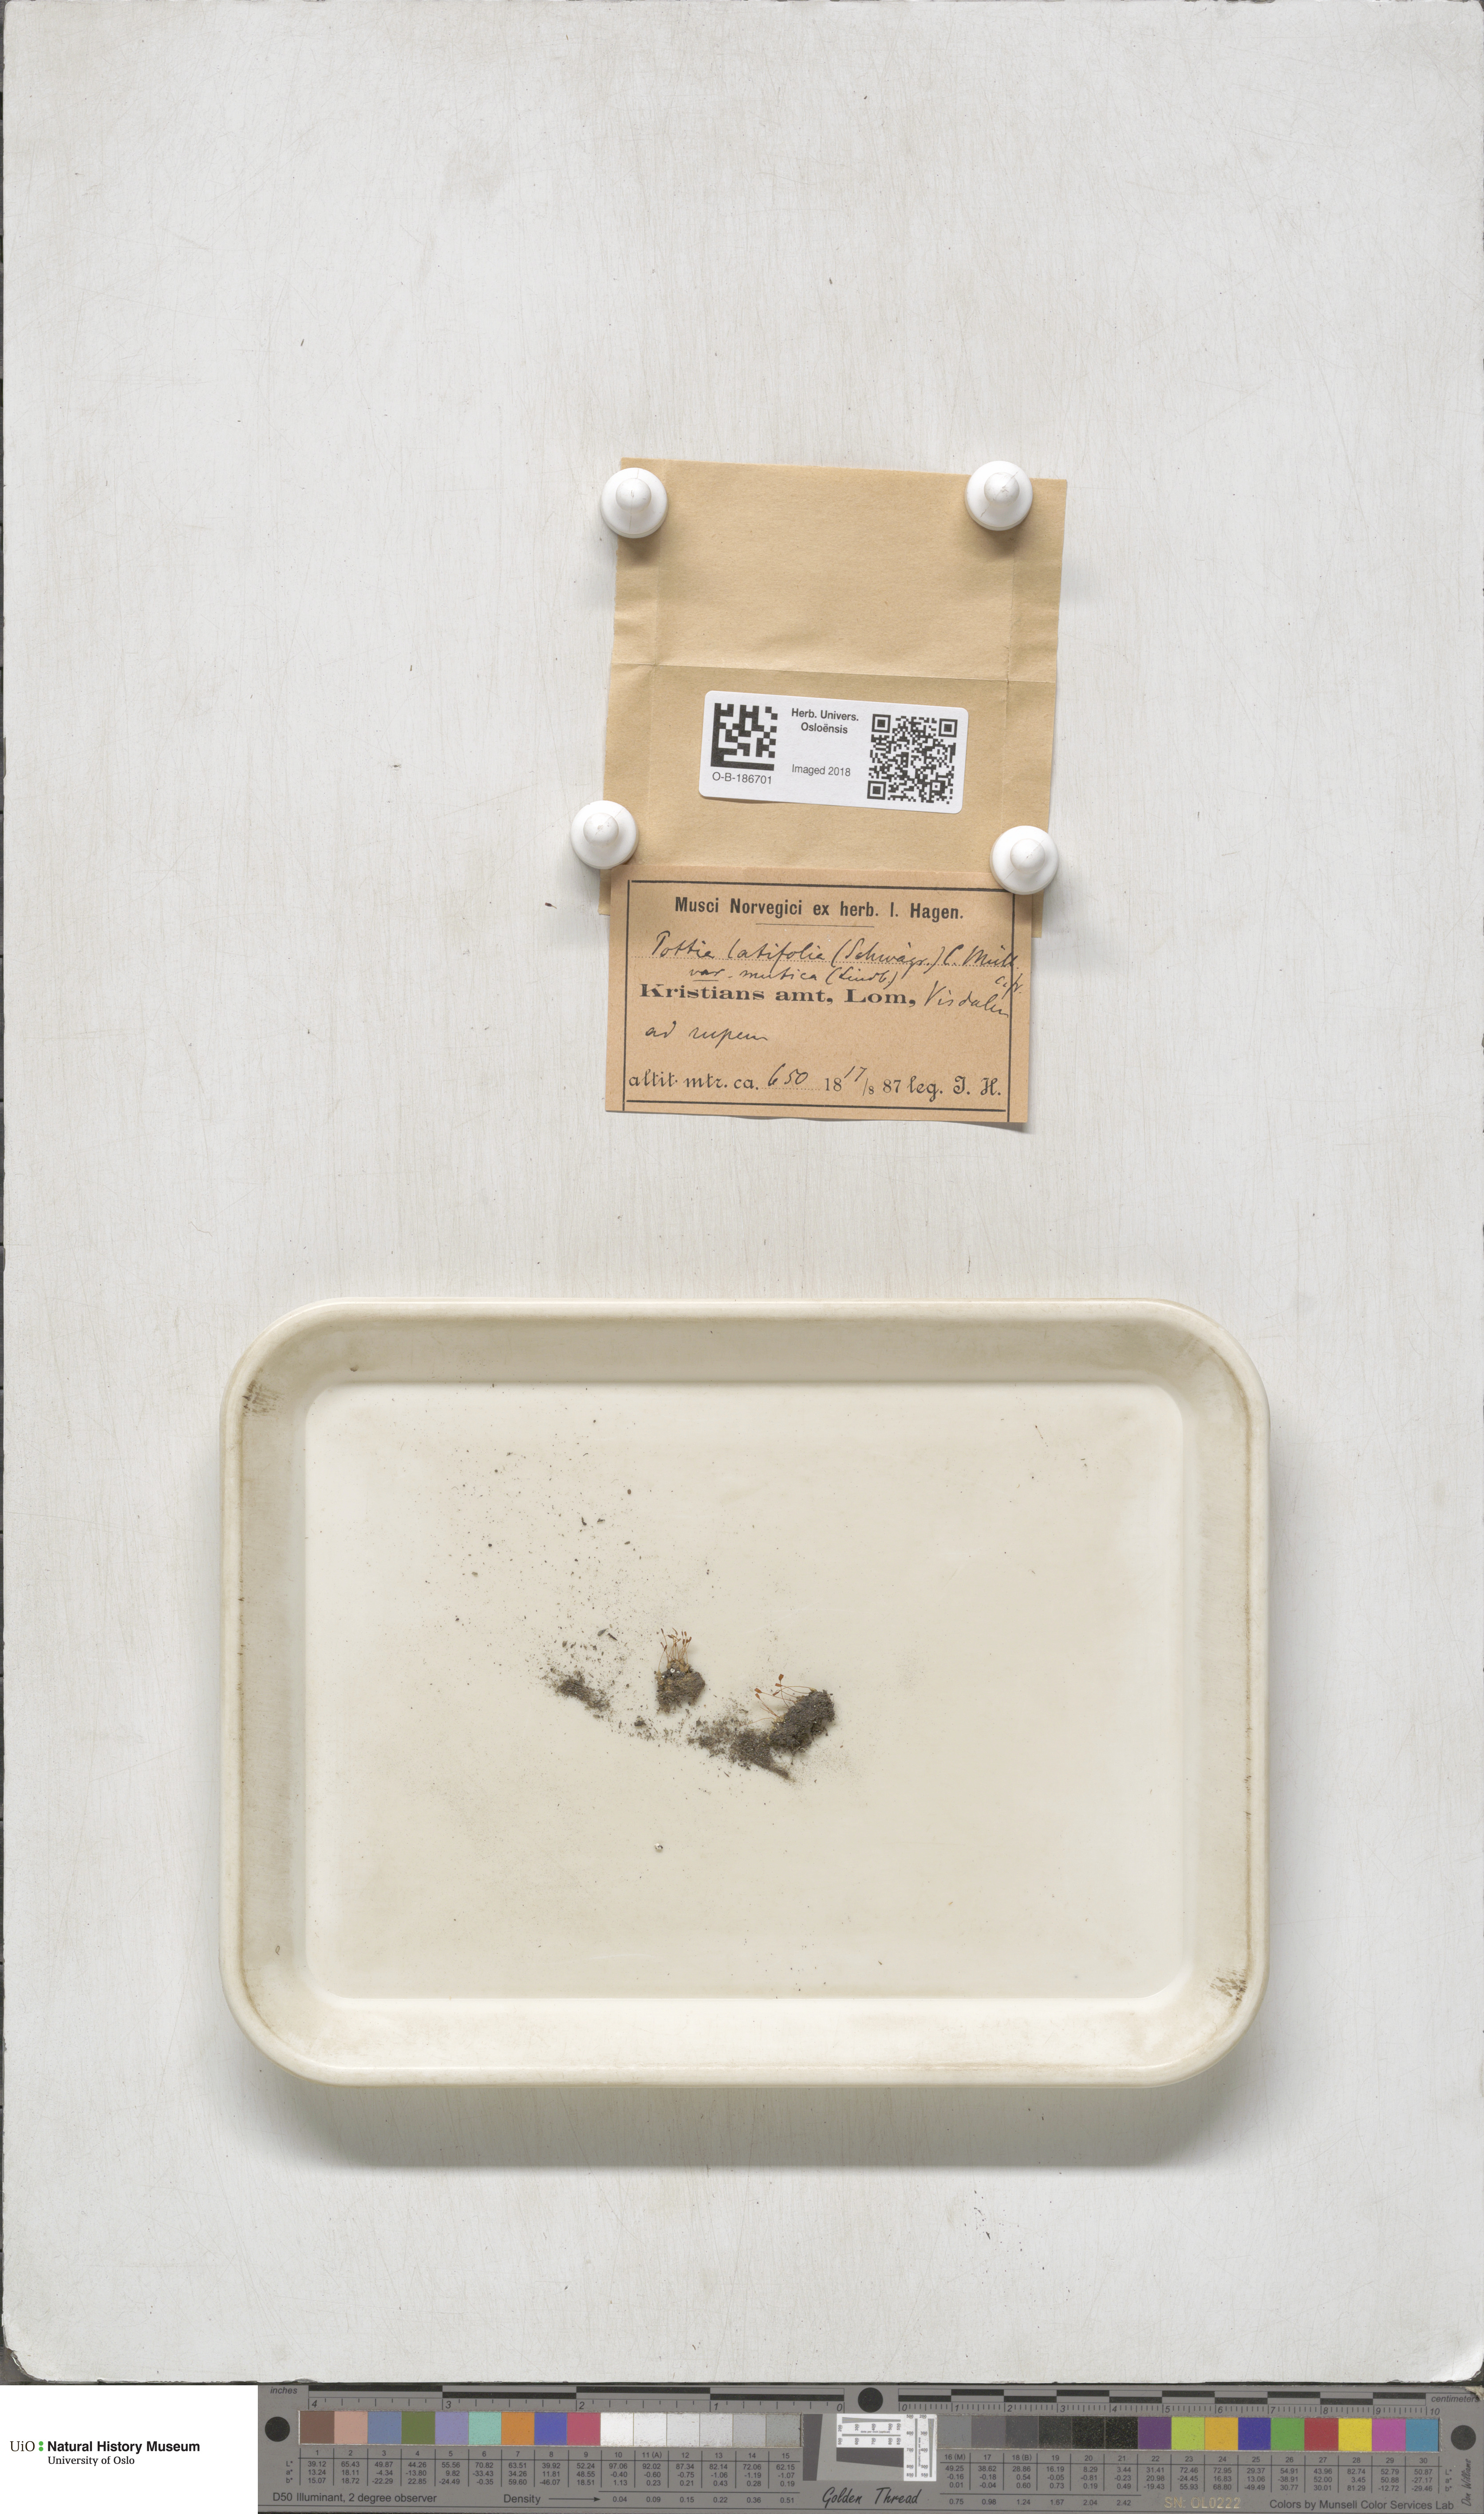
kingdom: Plantae
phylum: Bryophyta
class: Bryopsida
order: Pottiales
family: Pottiaceae
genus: Stegonia
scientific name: Stegonia latifolia
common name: Hood-leaved screw-moss
